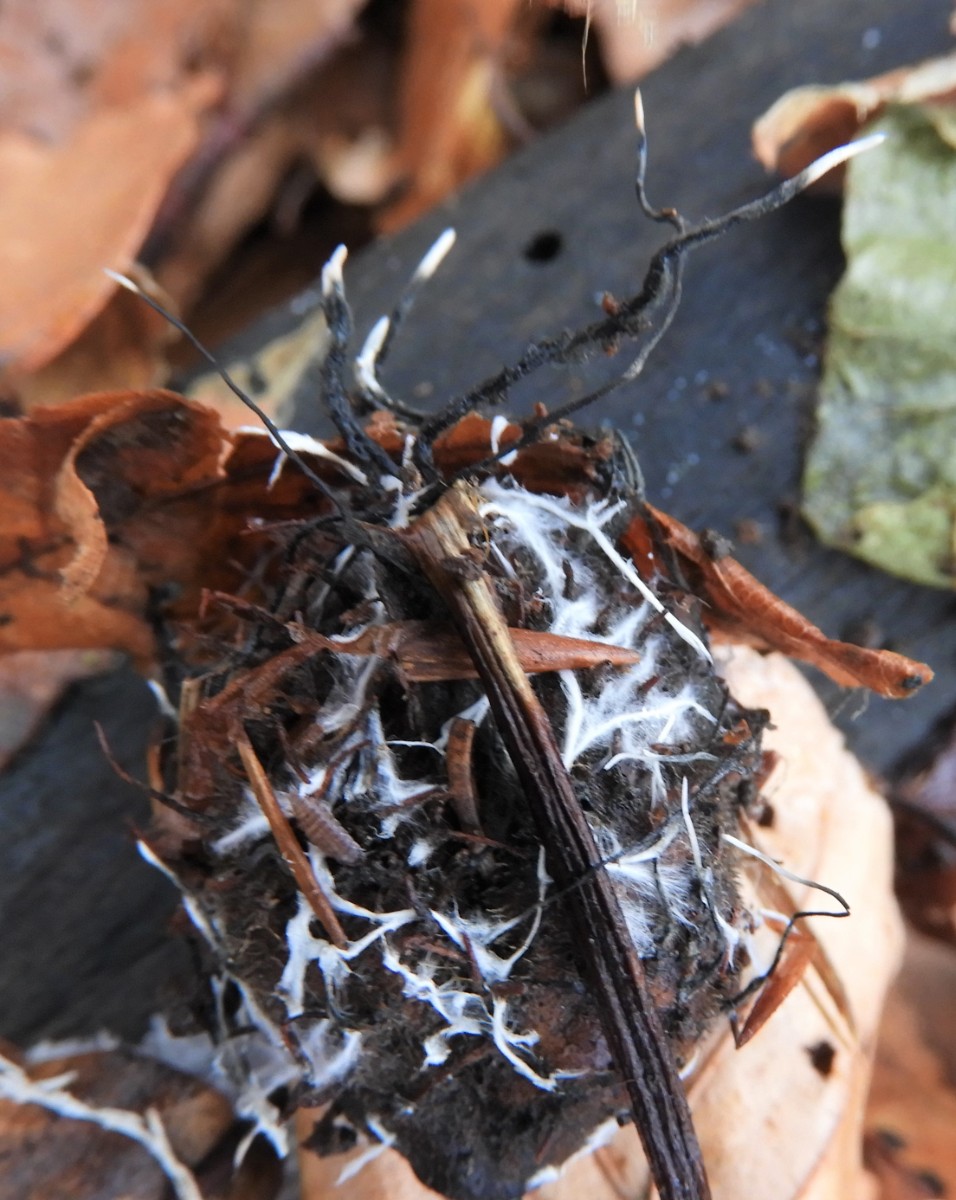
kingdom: Fungi
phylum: Ascomycota
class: Sordariomycetes
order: Xylariales
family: Xylariaceae
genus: Xylaria
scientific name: Xylaria carpophila
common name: bogskål-stødsvamp
